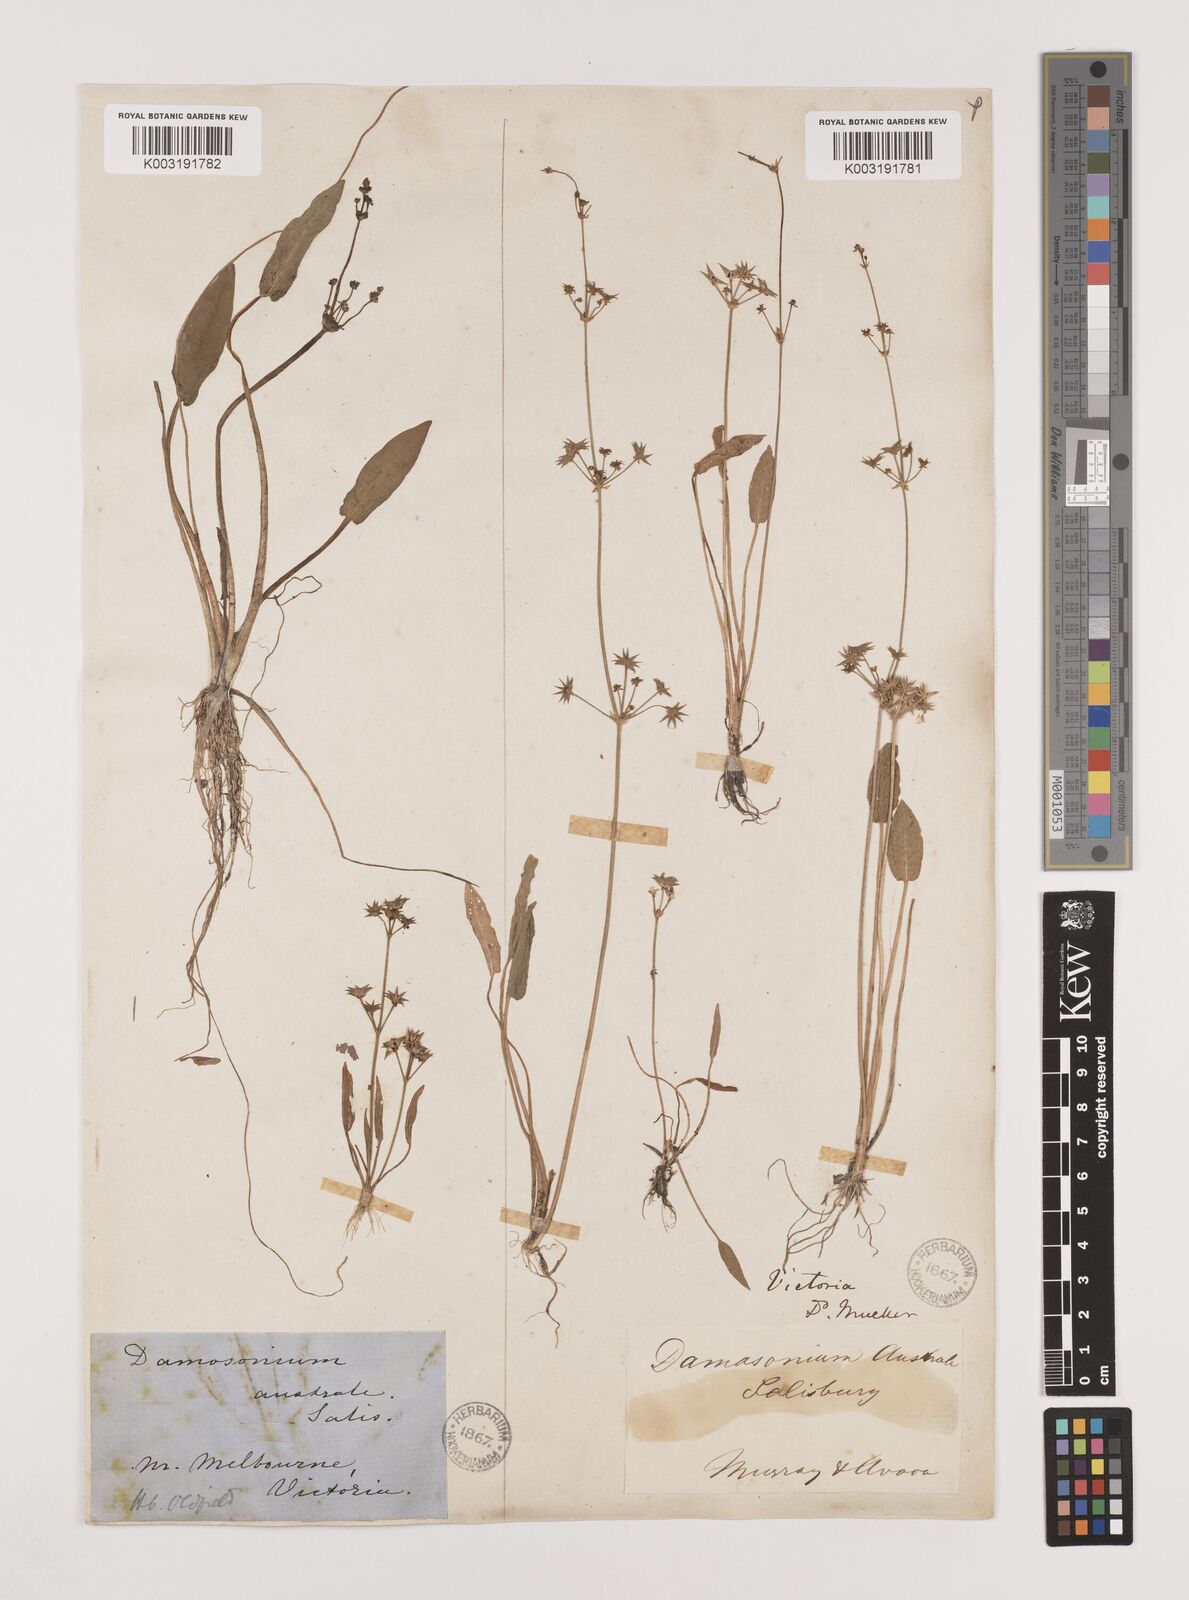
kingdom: Plantae
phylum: Tracheophyta
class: Liliopsida
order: Alismatales
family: Alismataceae
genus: Damasonium
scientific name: Damasonium minus
